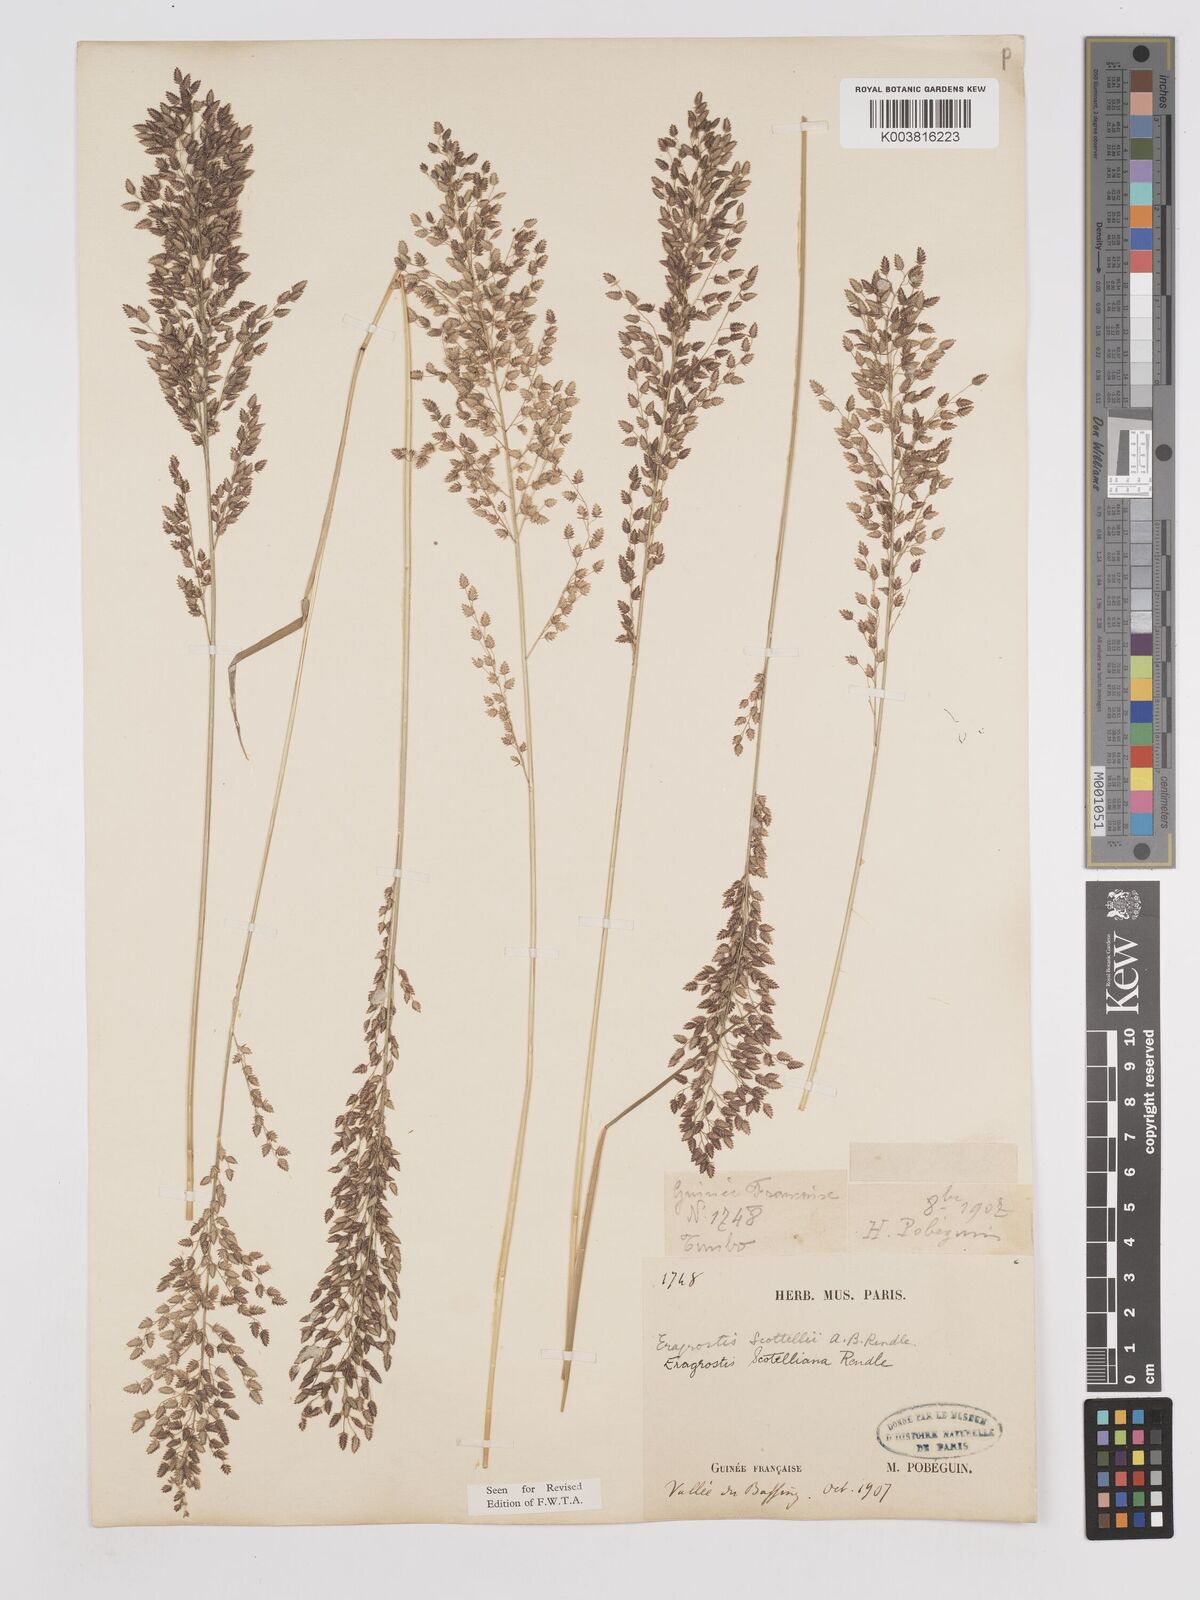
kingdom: Plantae
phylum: Tracheophyta
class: Liliopsida
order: Poales
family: Poaceae
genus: Eragrostis
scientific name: Eragrostis scotelliana
